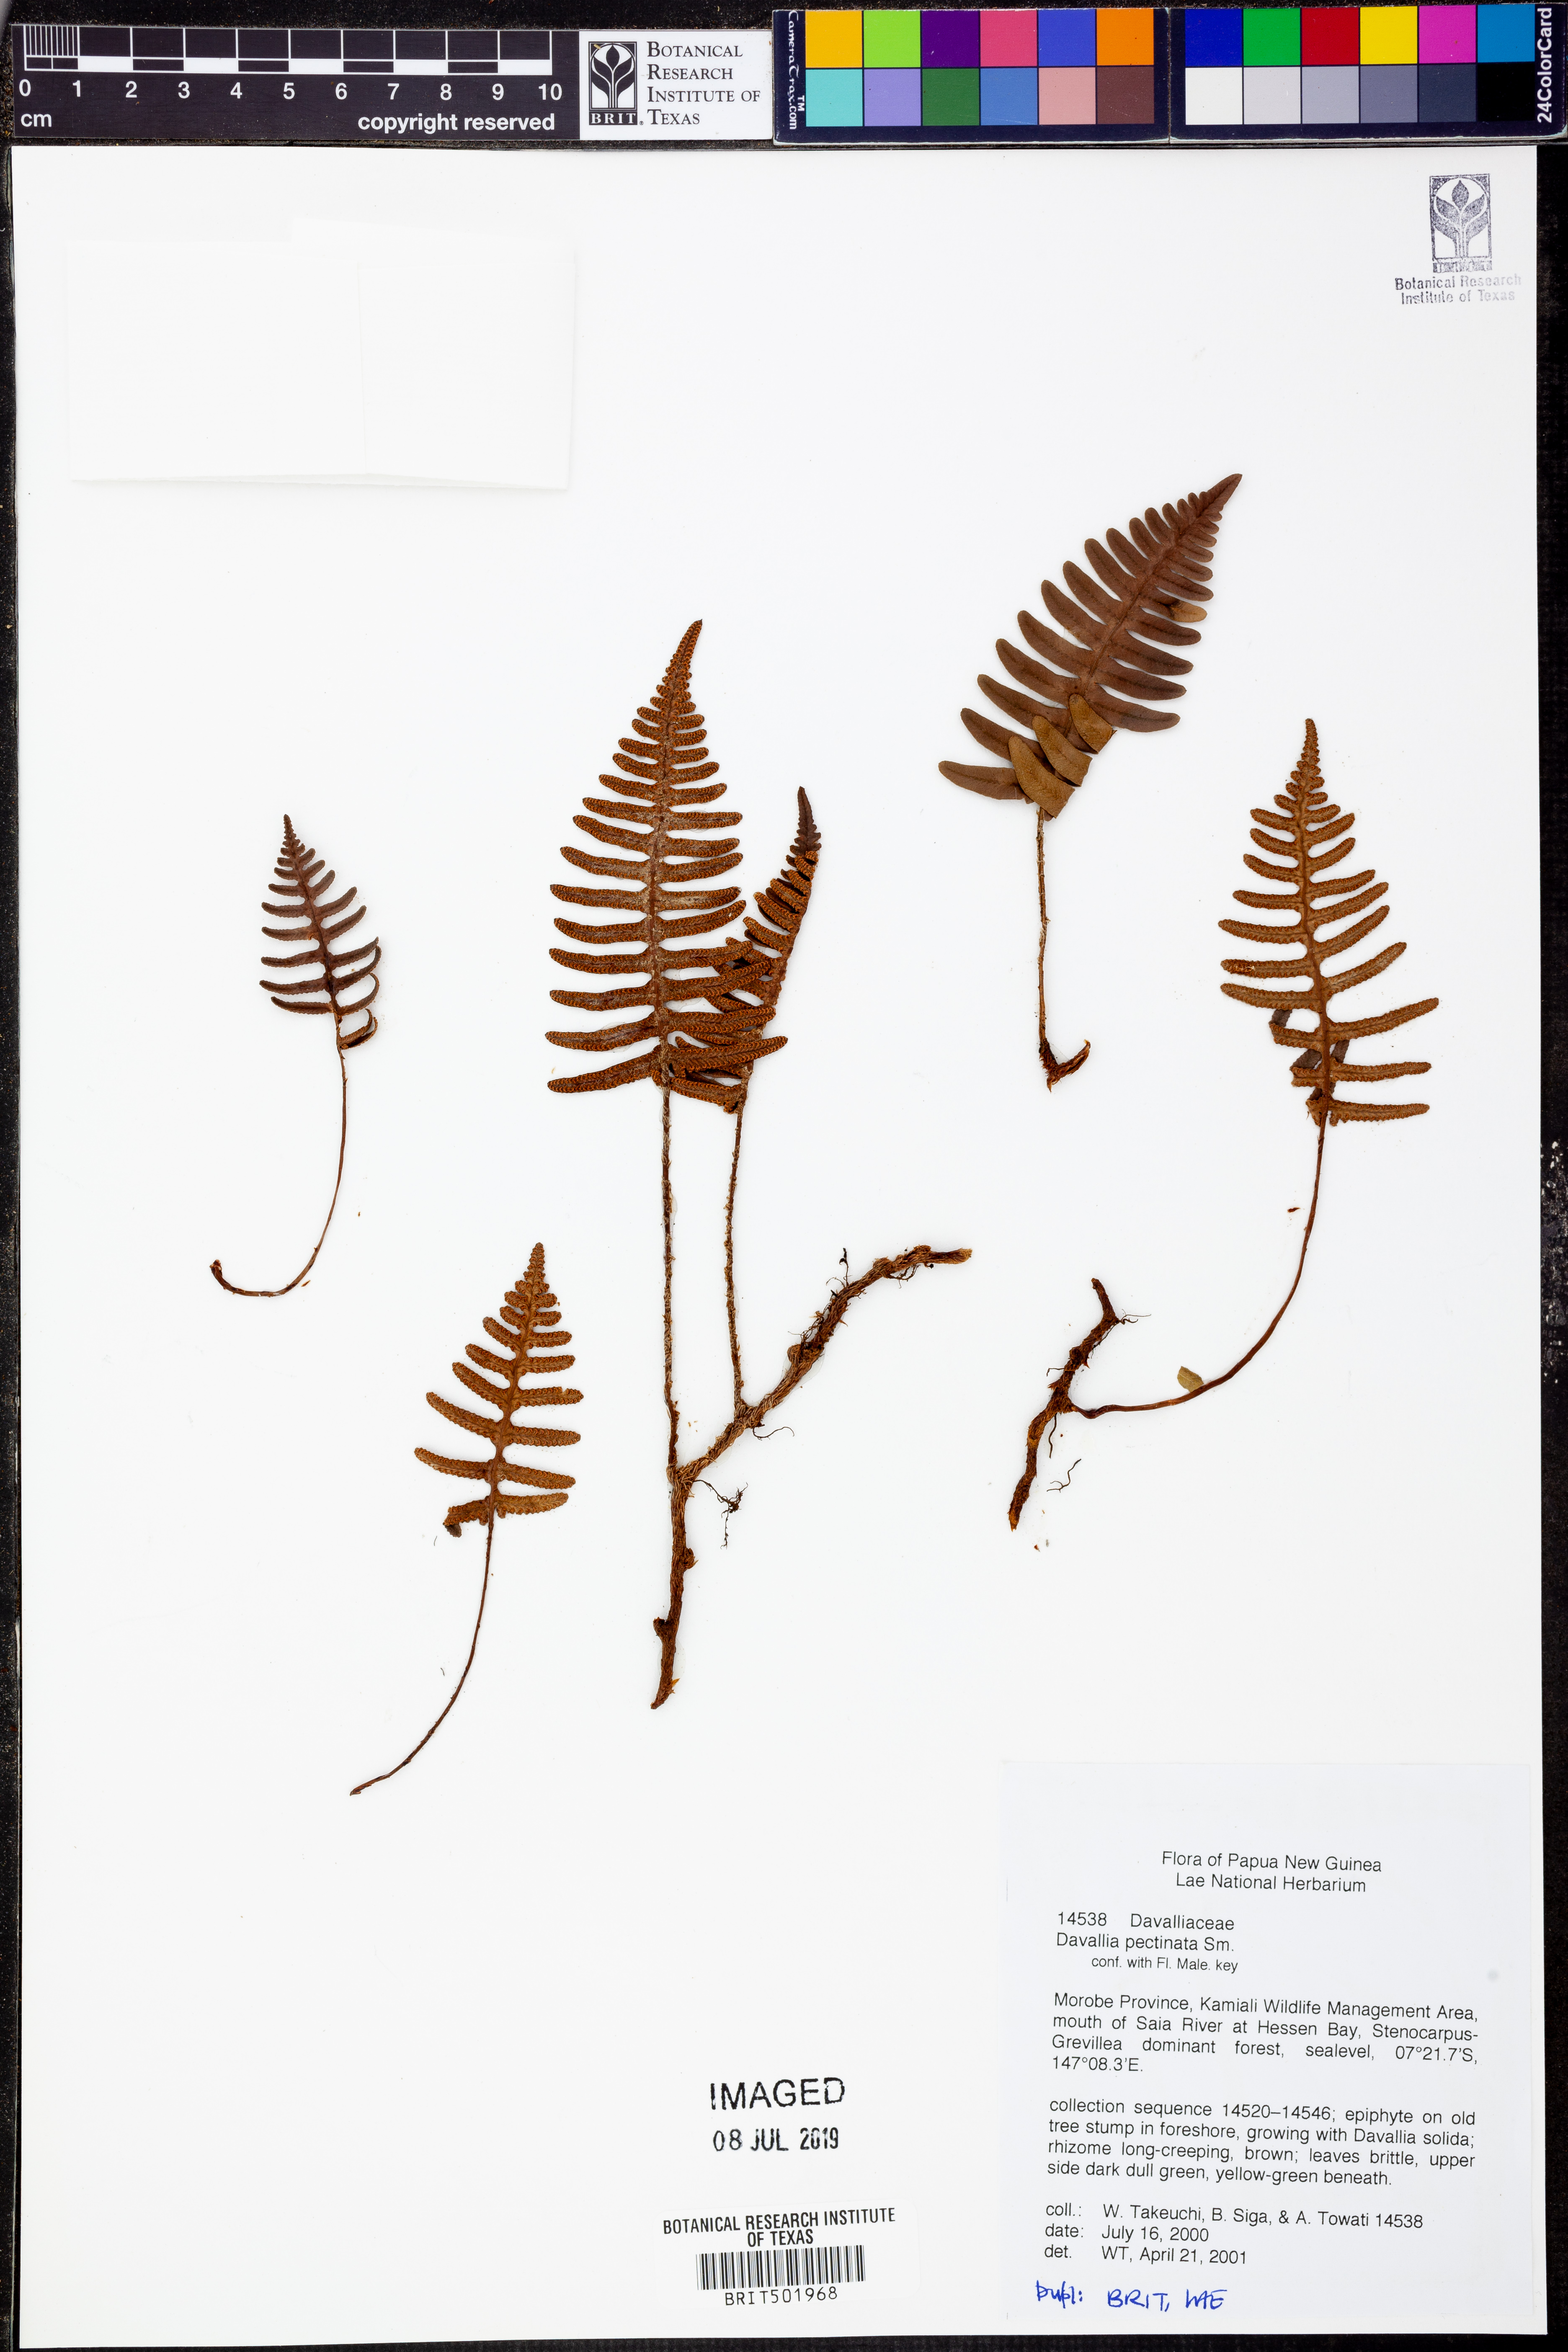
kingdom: Plantae
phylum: Tracheophyta
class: Polypodiopsida
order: Polypodiales
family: Davalliaceae
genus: Davallia
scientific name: Davallia pectinata
